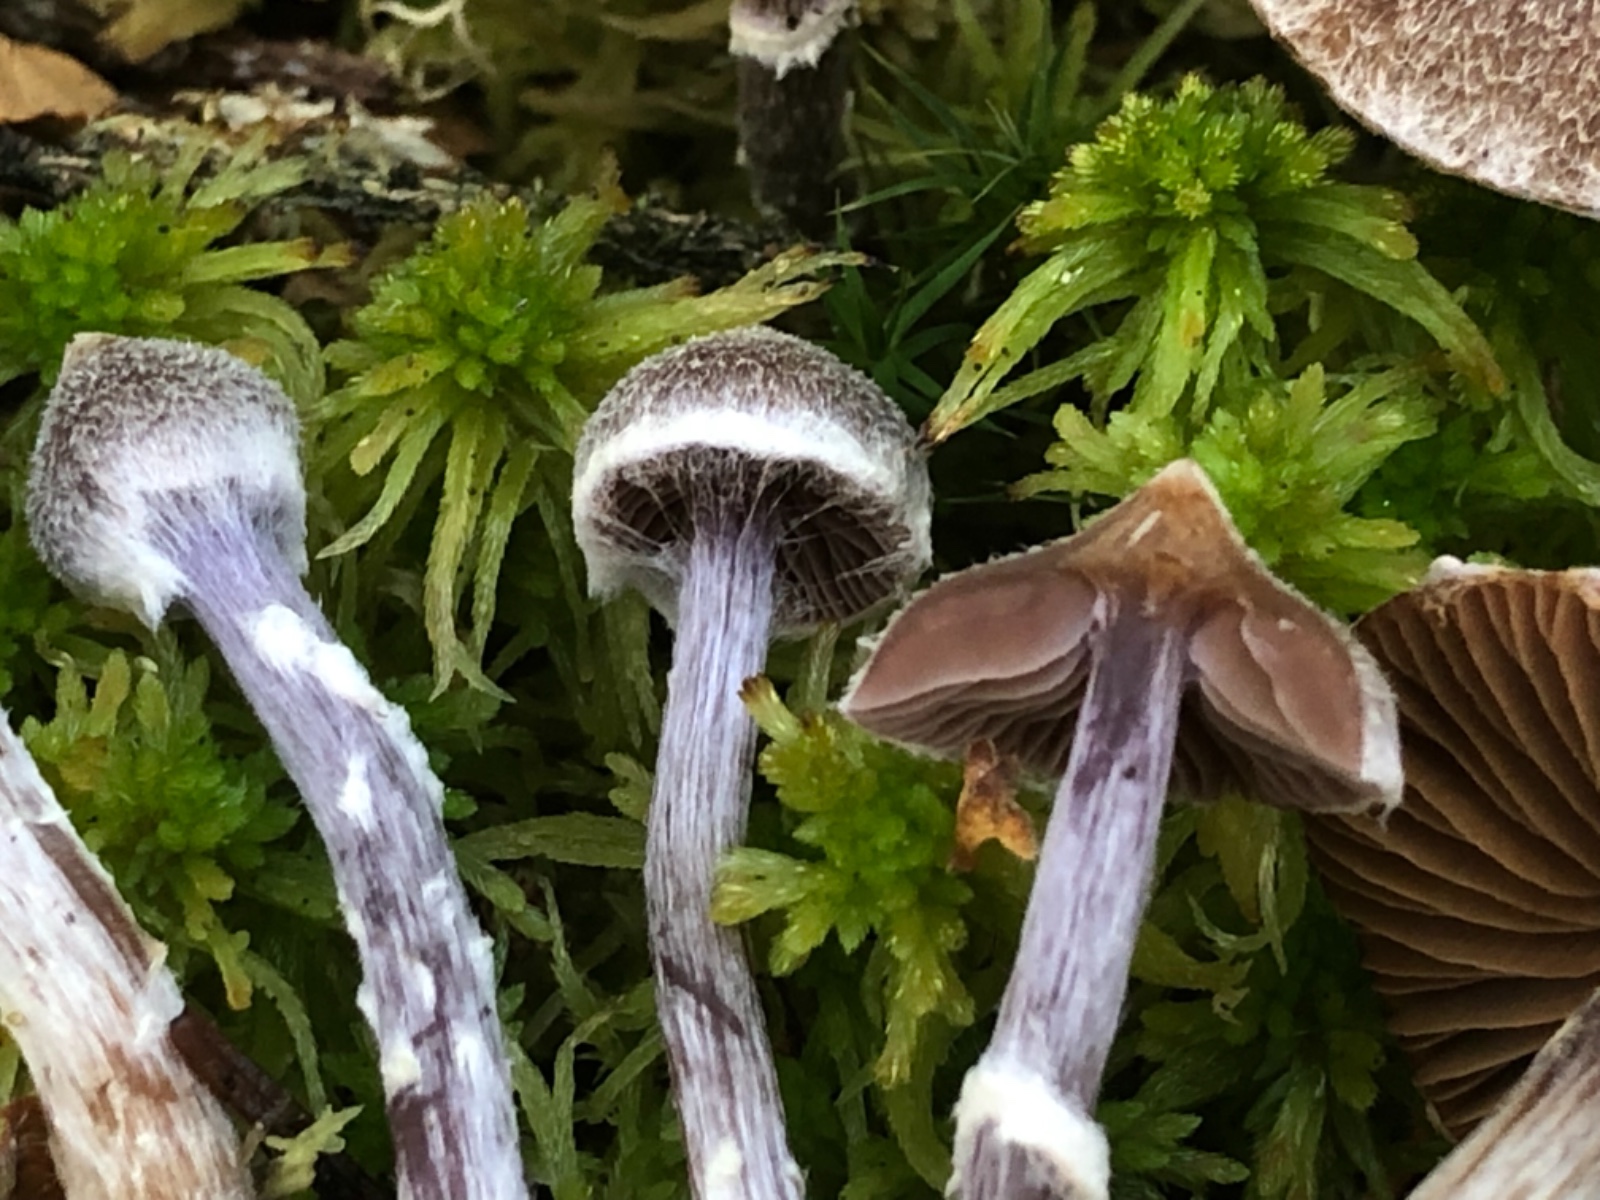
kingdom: Fungi
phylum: Basidiomycota
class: Agaricomycetes
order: Agaricales
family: Cortinariaceae
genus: Cortinarius
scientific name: Cortinarius flexipes
